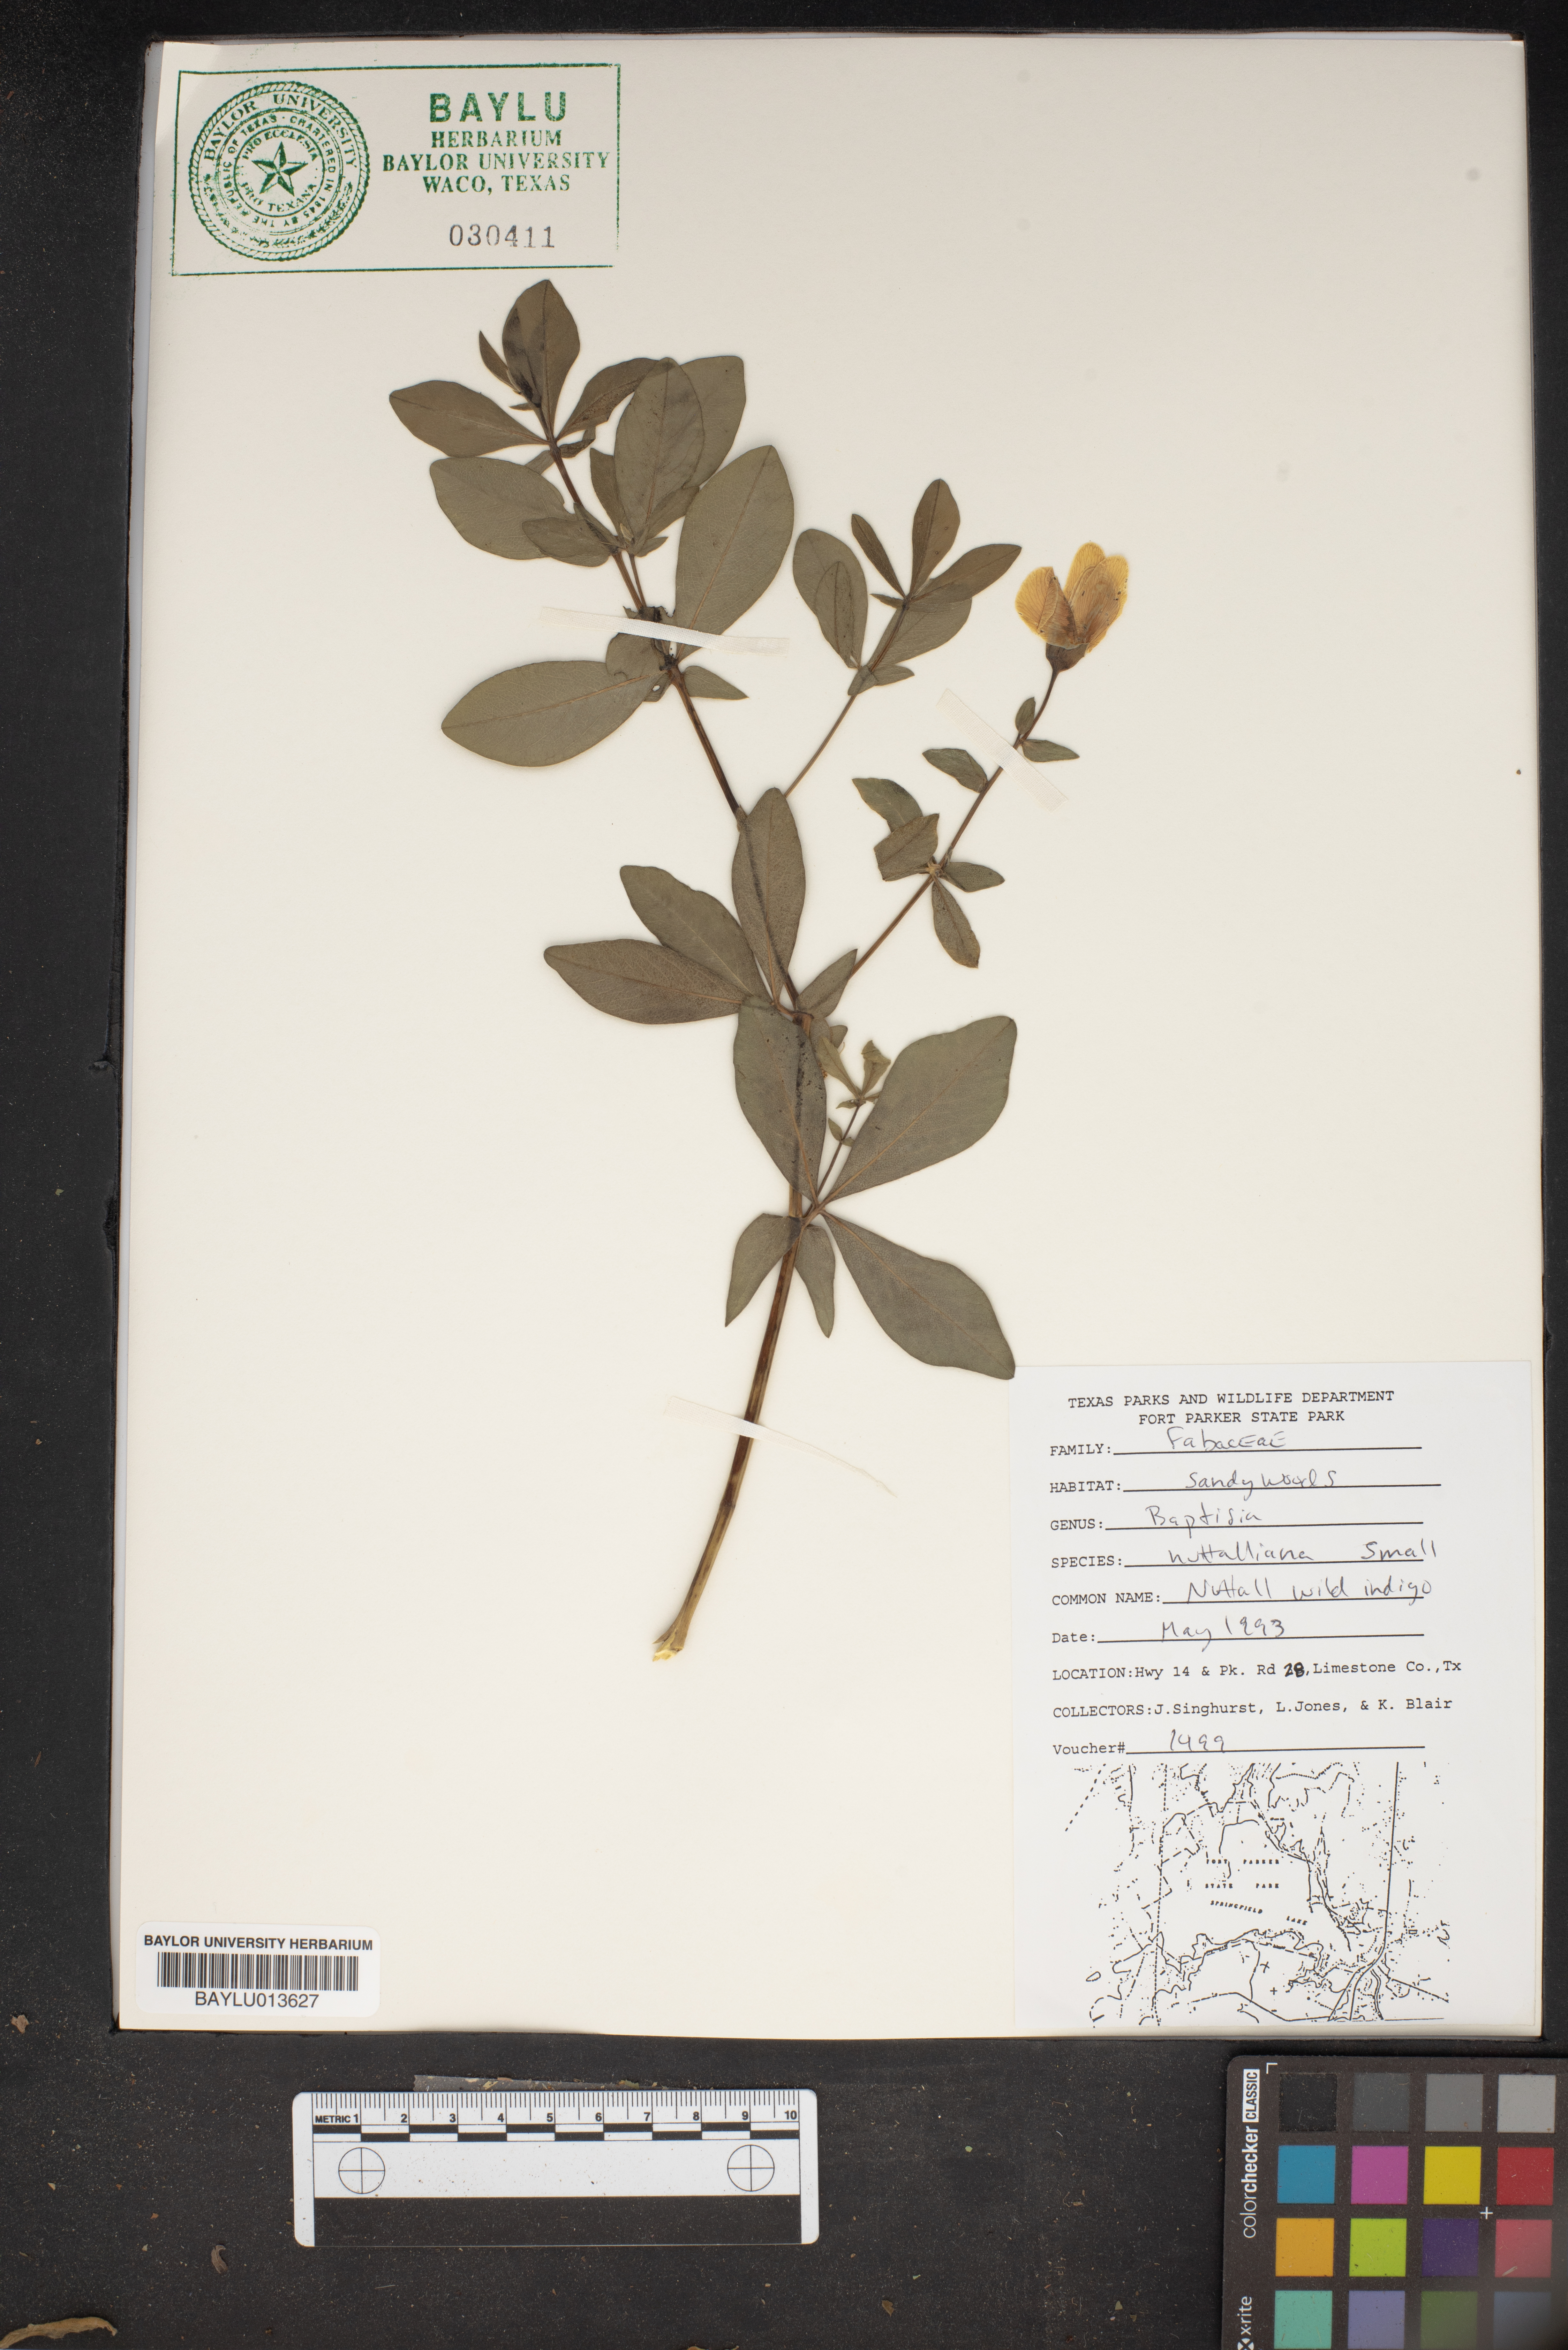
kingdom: Plantae
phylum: Tracheophyta
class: Magnoliopsida
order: Fabales
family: Fabaceae
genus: Baptisia
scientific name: Baptisia nuttalliana
